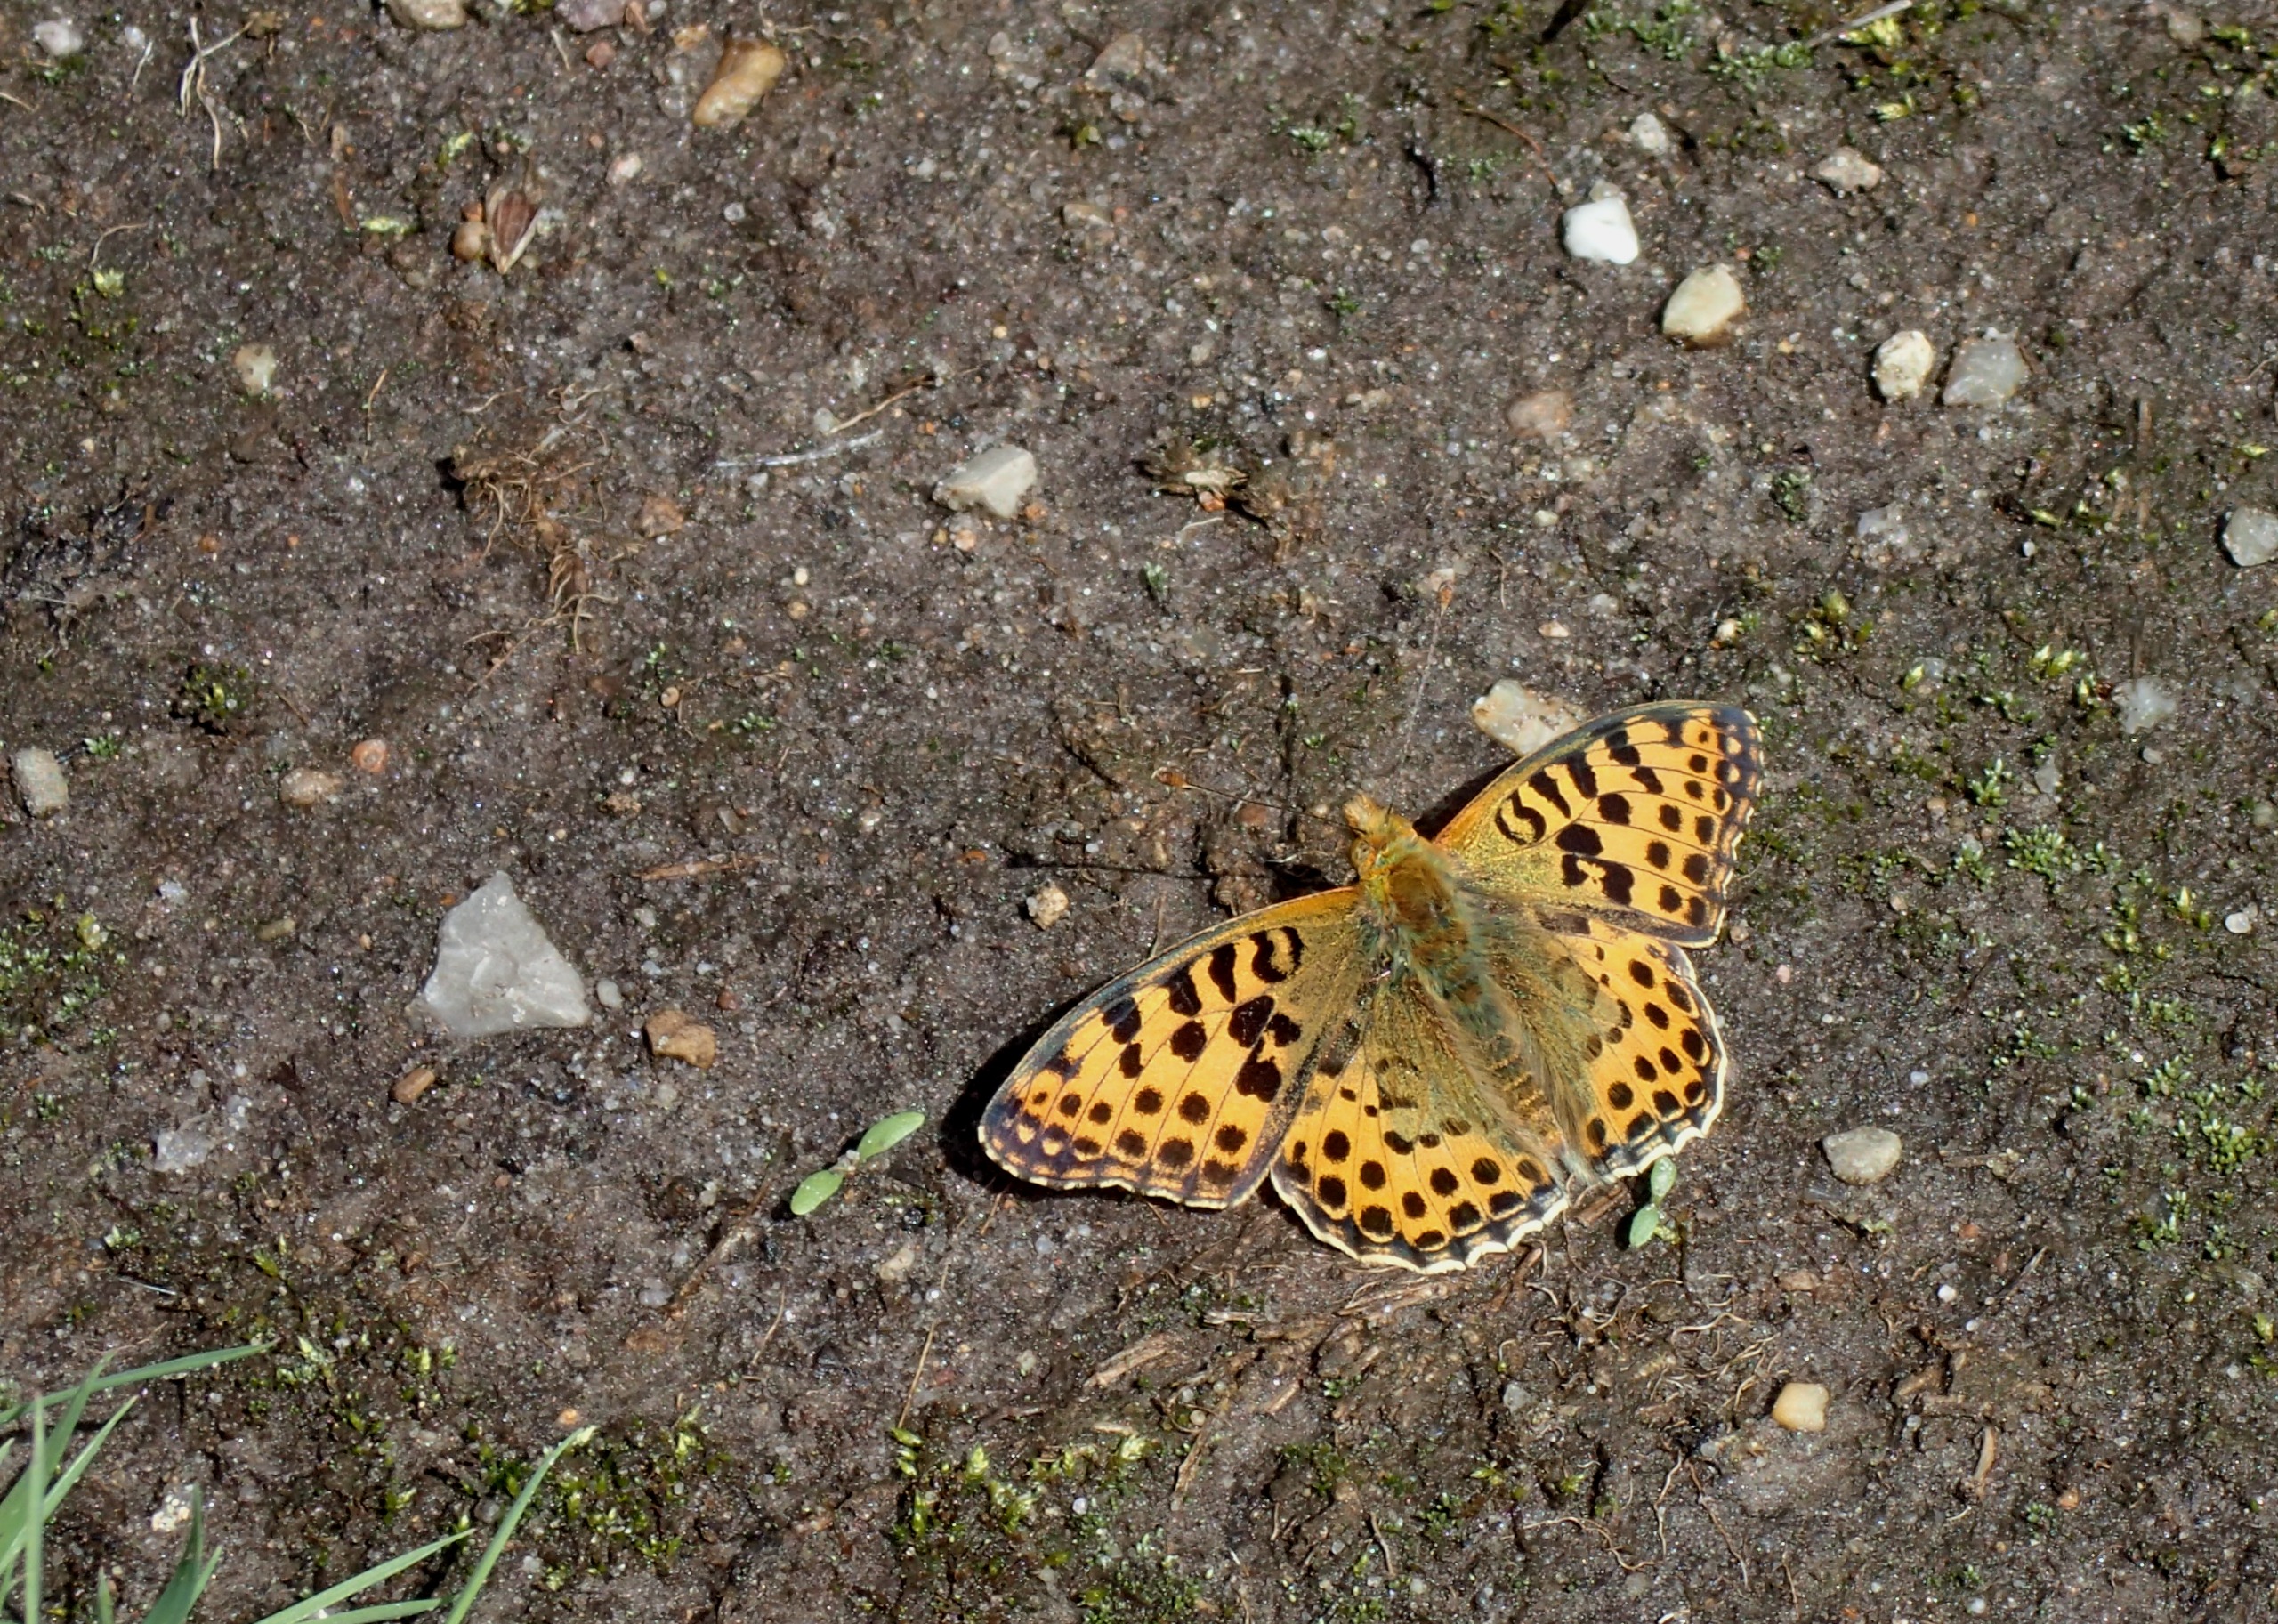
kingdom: Animalia
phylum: Arthropoda
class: Insecta
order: Lepidoptera
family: Nymphalidae
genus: Issoria
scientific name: Issoria lathonia
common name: Storplettet perlemorsommerfugl
